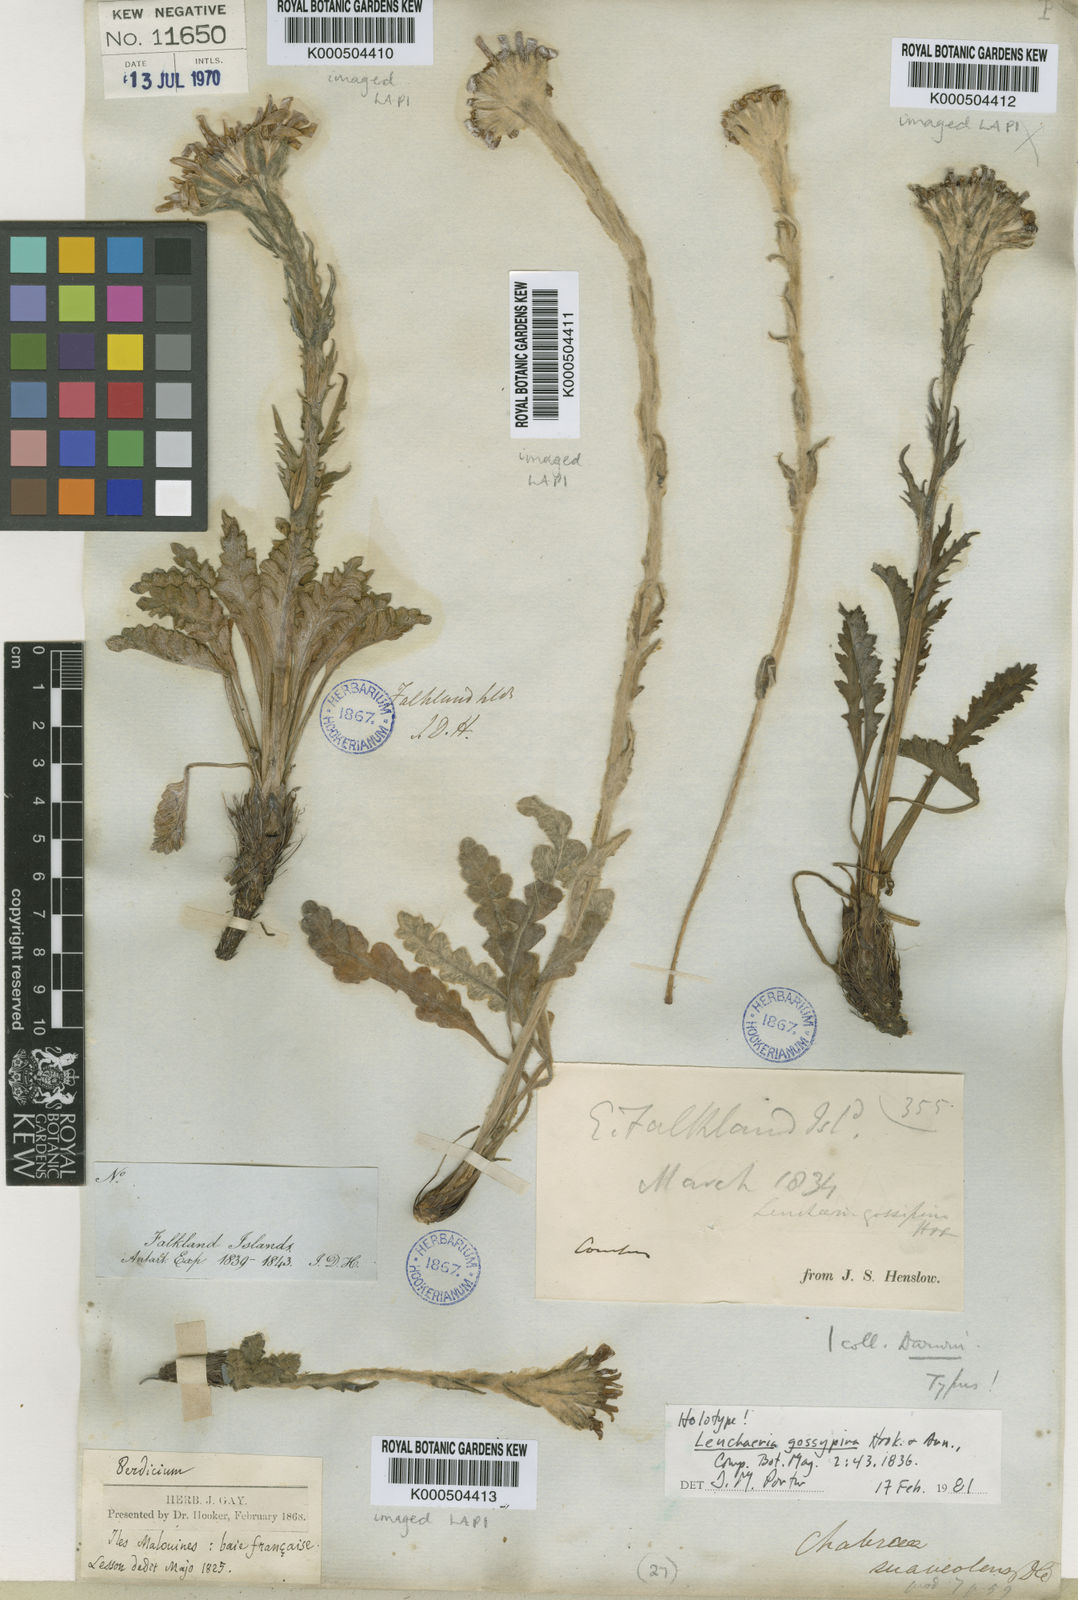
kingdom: Plantae
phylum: Tracheophyta
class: Magnoliopsida
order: Asterales
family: Asteraceae
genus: Leucheria
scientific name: Leucheria
